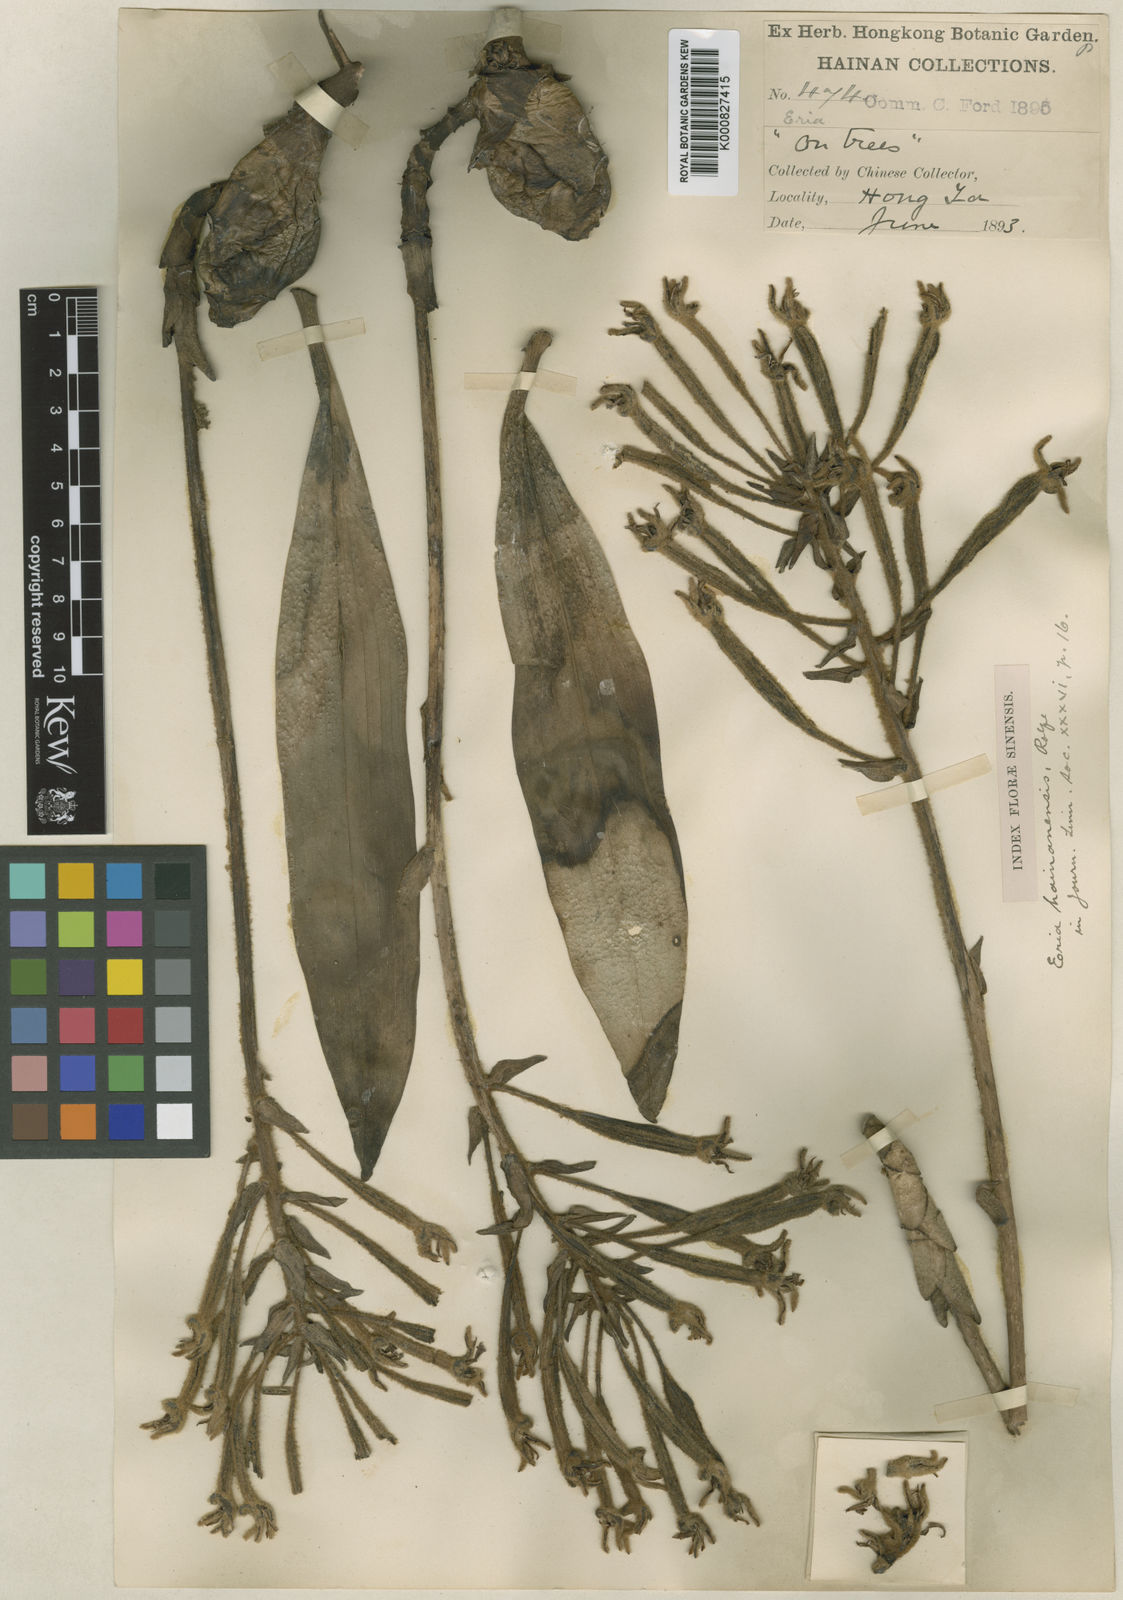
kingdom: Plantae
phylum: Tracheophyta
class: Liliopsida
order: Asparagales
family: Orchidaceae
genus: Dendrolirium
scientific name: Dendrolirium tomentosum
